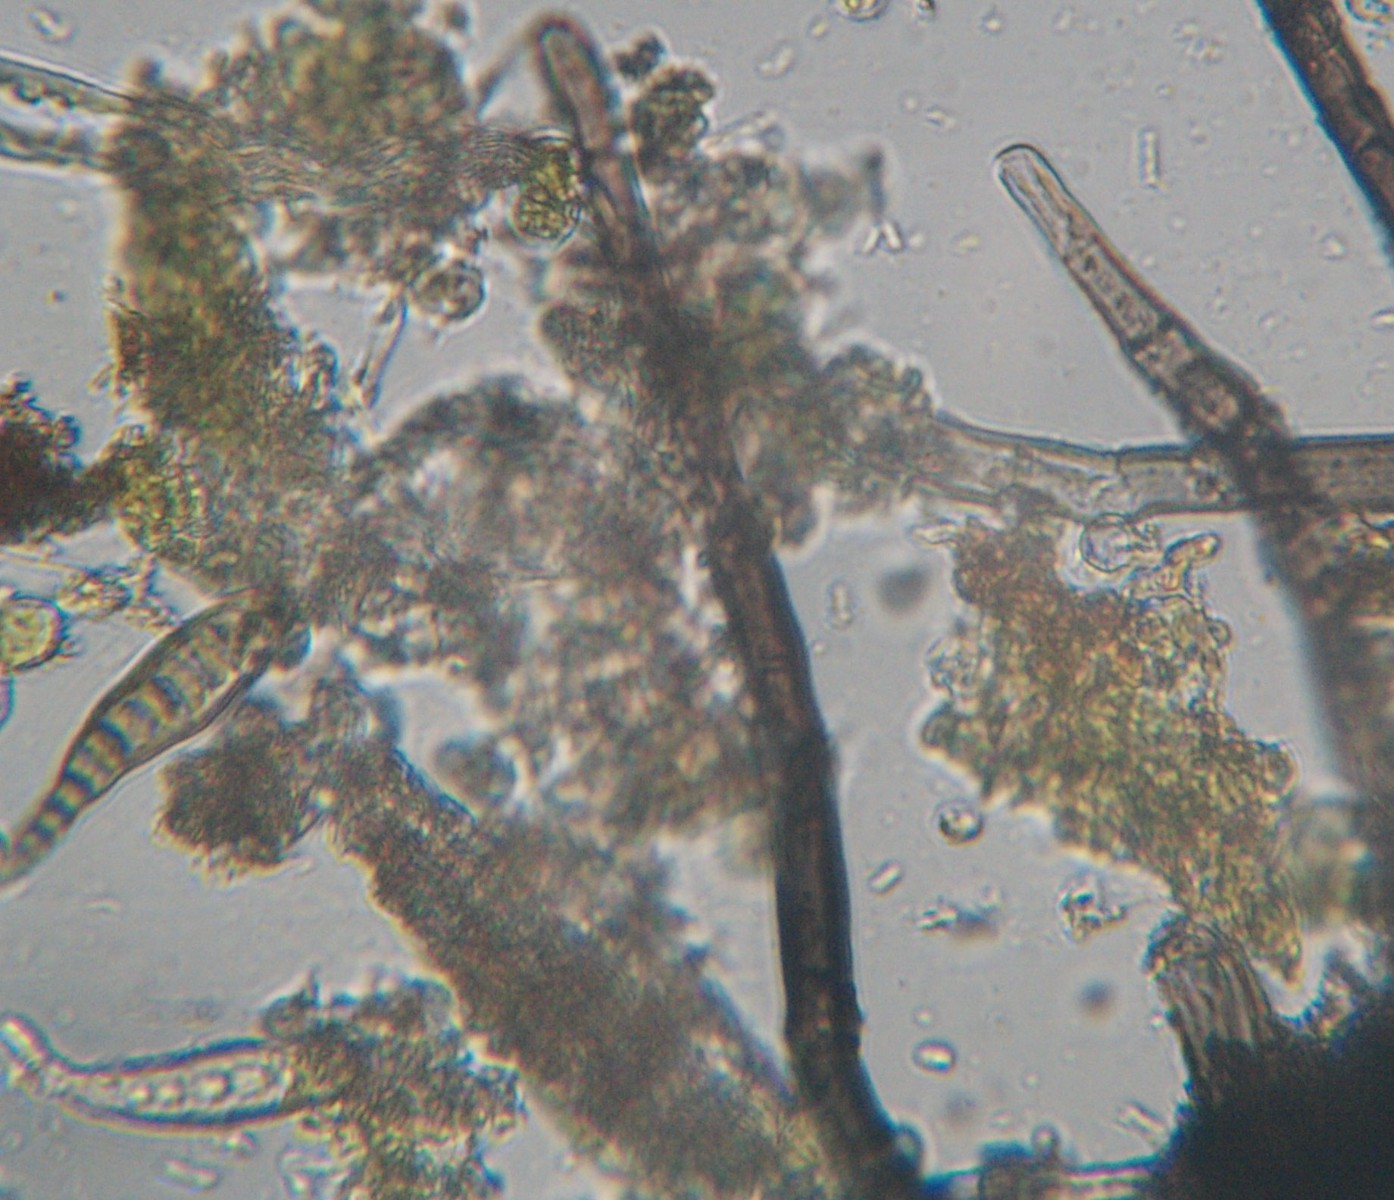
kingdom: Fungi
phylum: Ascomycota
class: Dothideomycetes
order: Pleosporales
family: Massarinaceae
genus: Helminthosporium
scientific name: Helminthosporium velutinum
